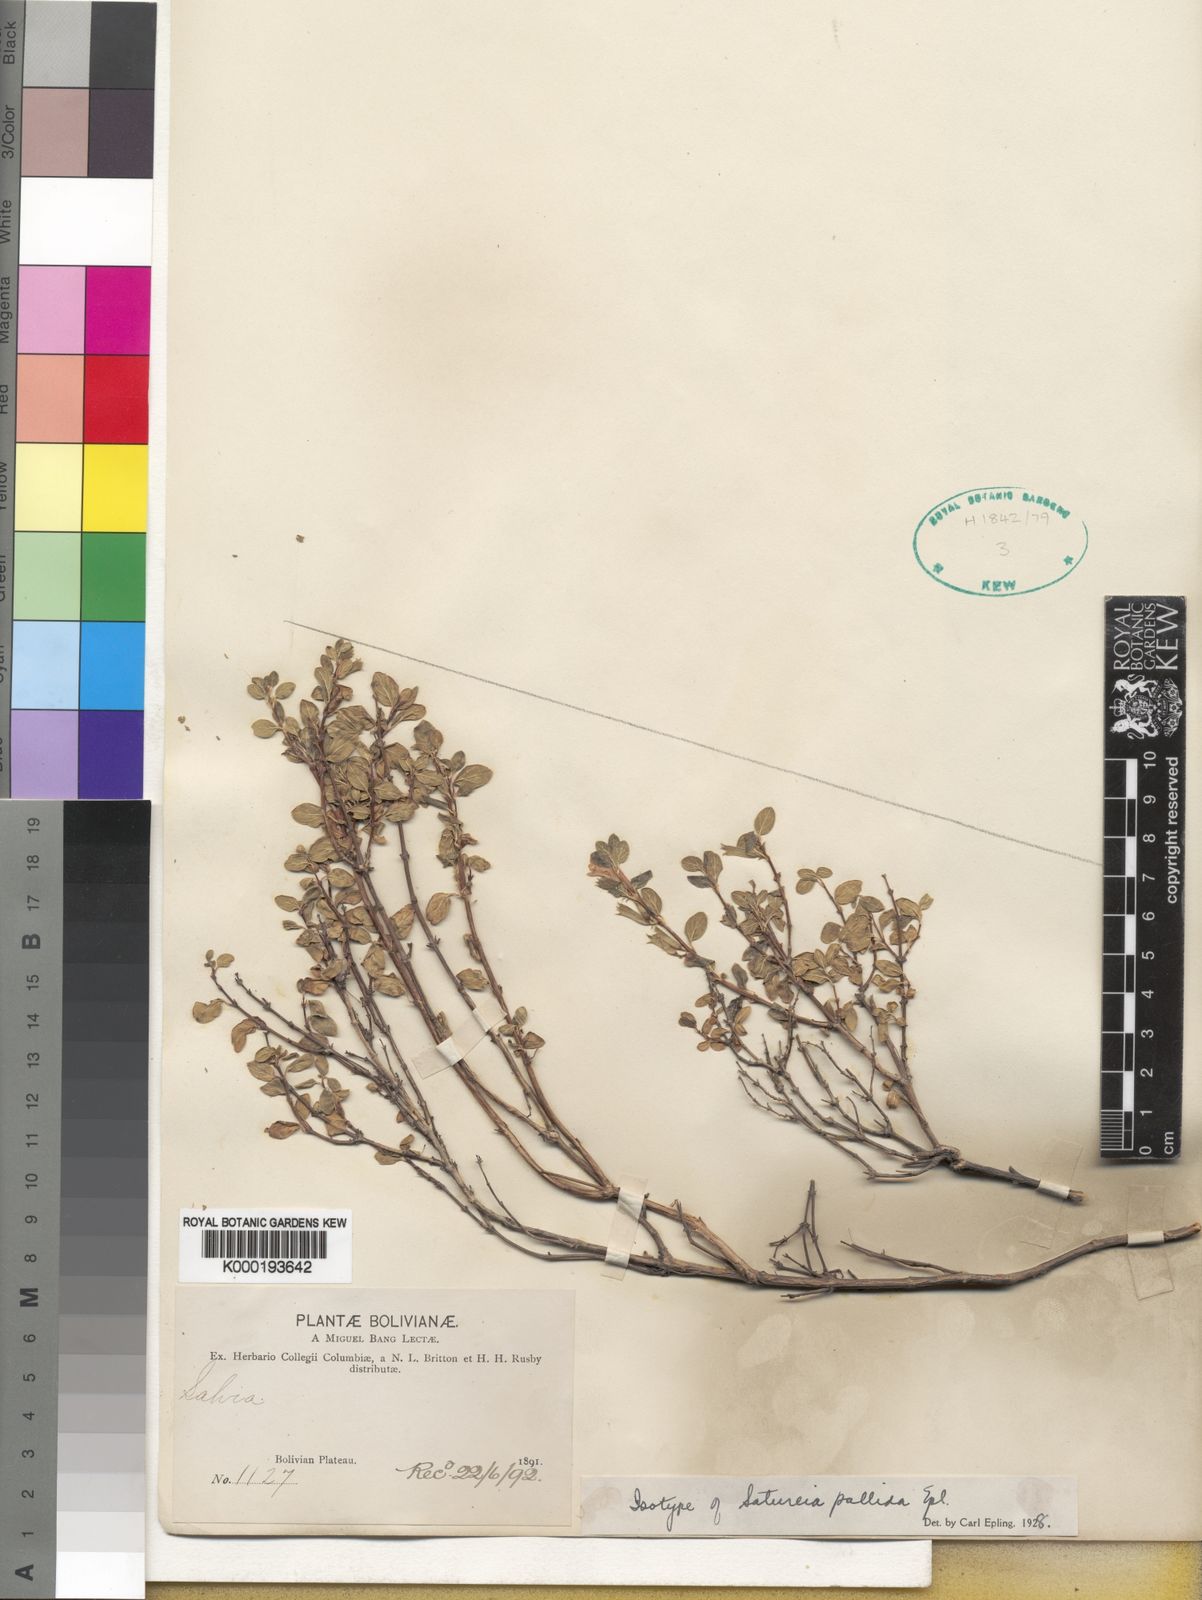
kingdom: Plantae
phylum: Tracheophyta
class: Magnoliopsida
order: Lamiales
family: Lamiaceae
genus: Clinopodium
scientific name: Clinopodium pallidum
